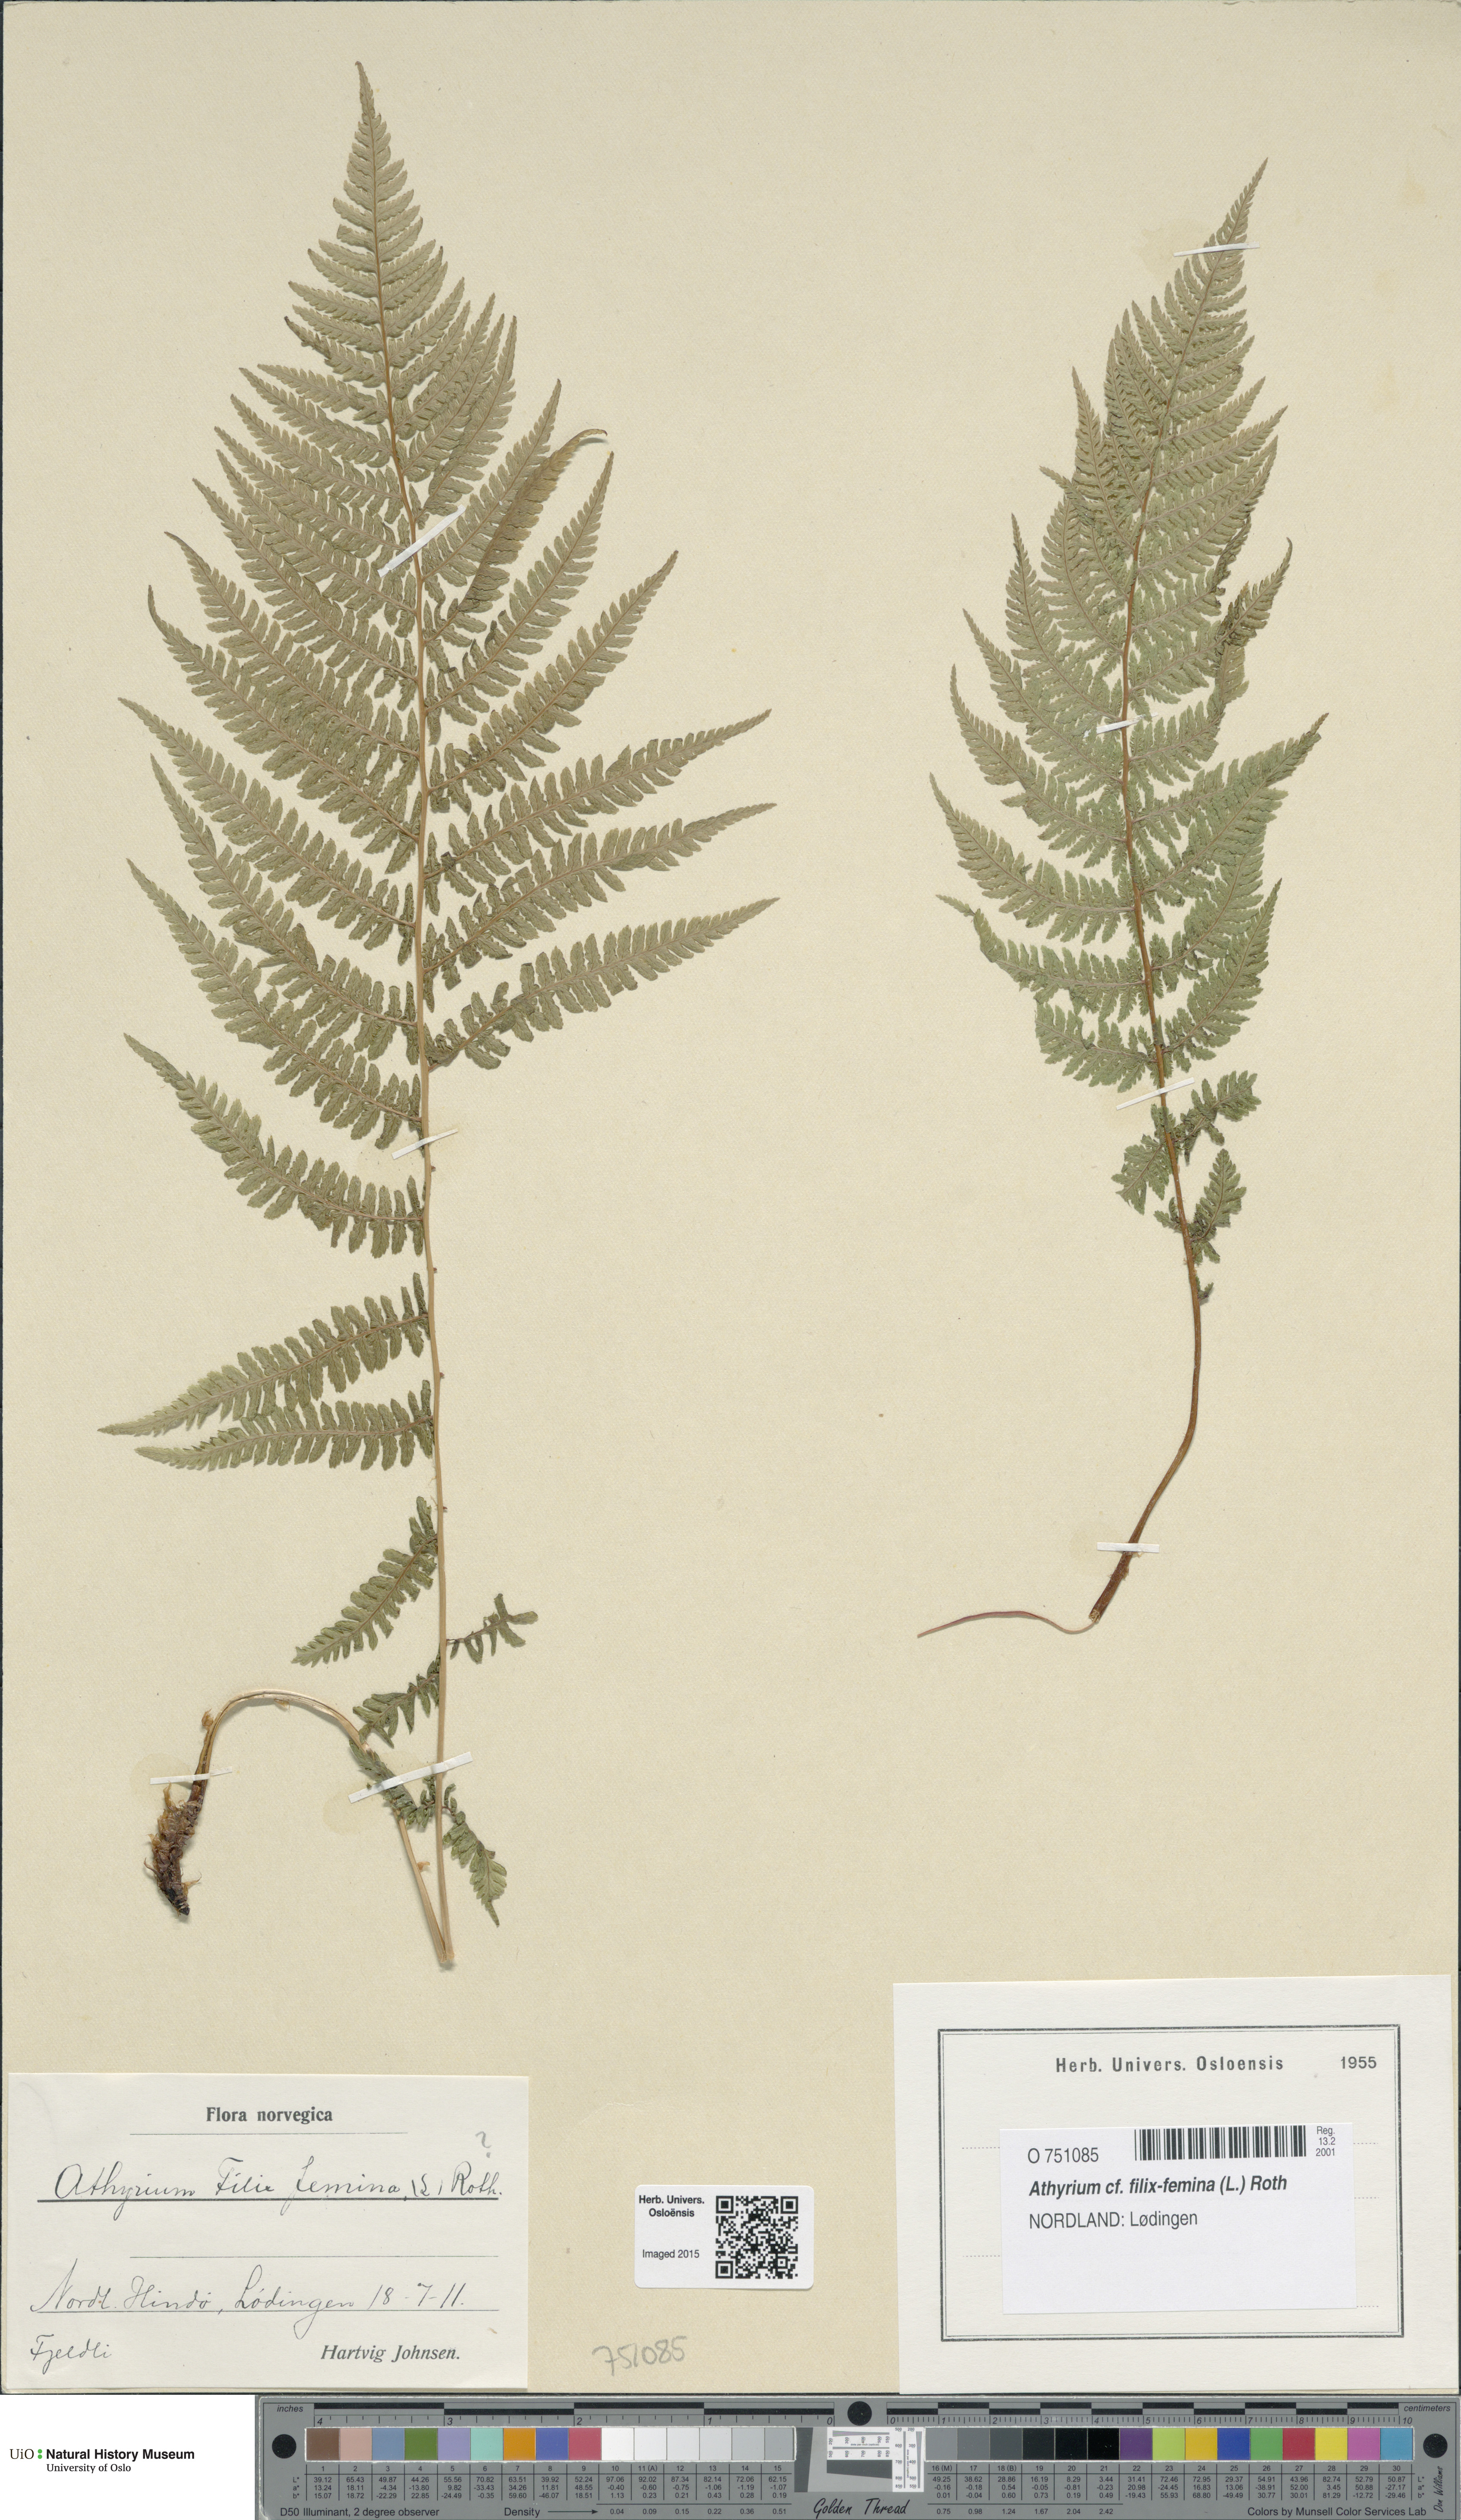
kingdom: Plantae
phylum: Tracheophyta
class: Polypodiopsida
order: Polypodiales
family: Athyriaceae
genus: Athyrium
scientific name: Athyrium filix-femina
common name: Lady fern
